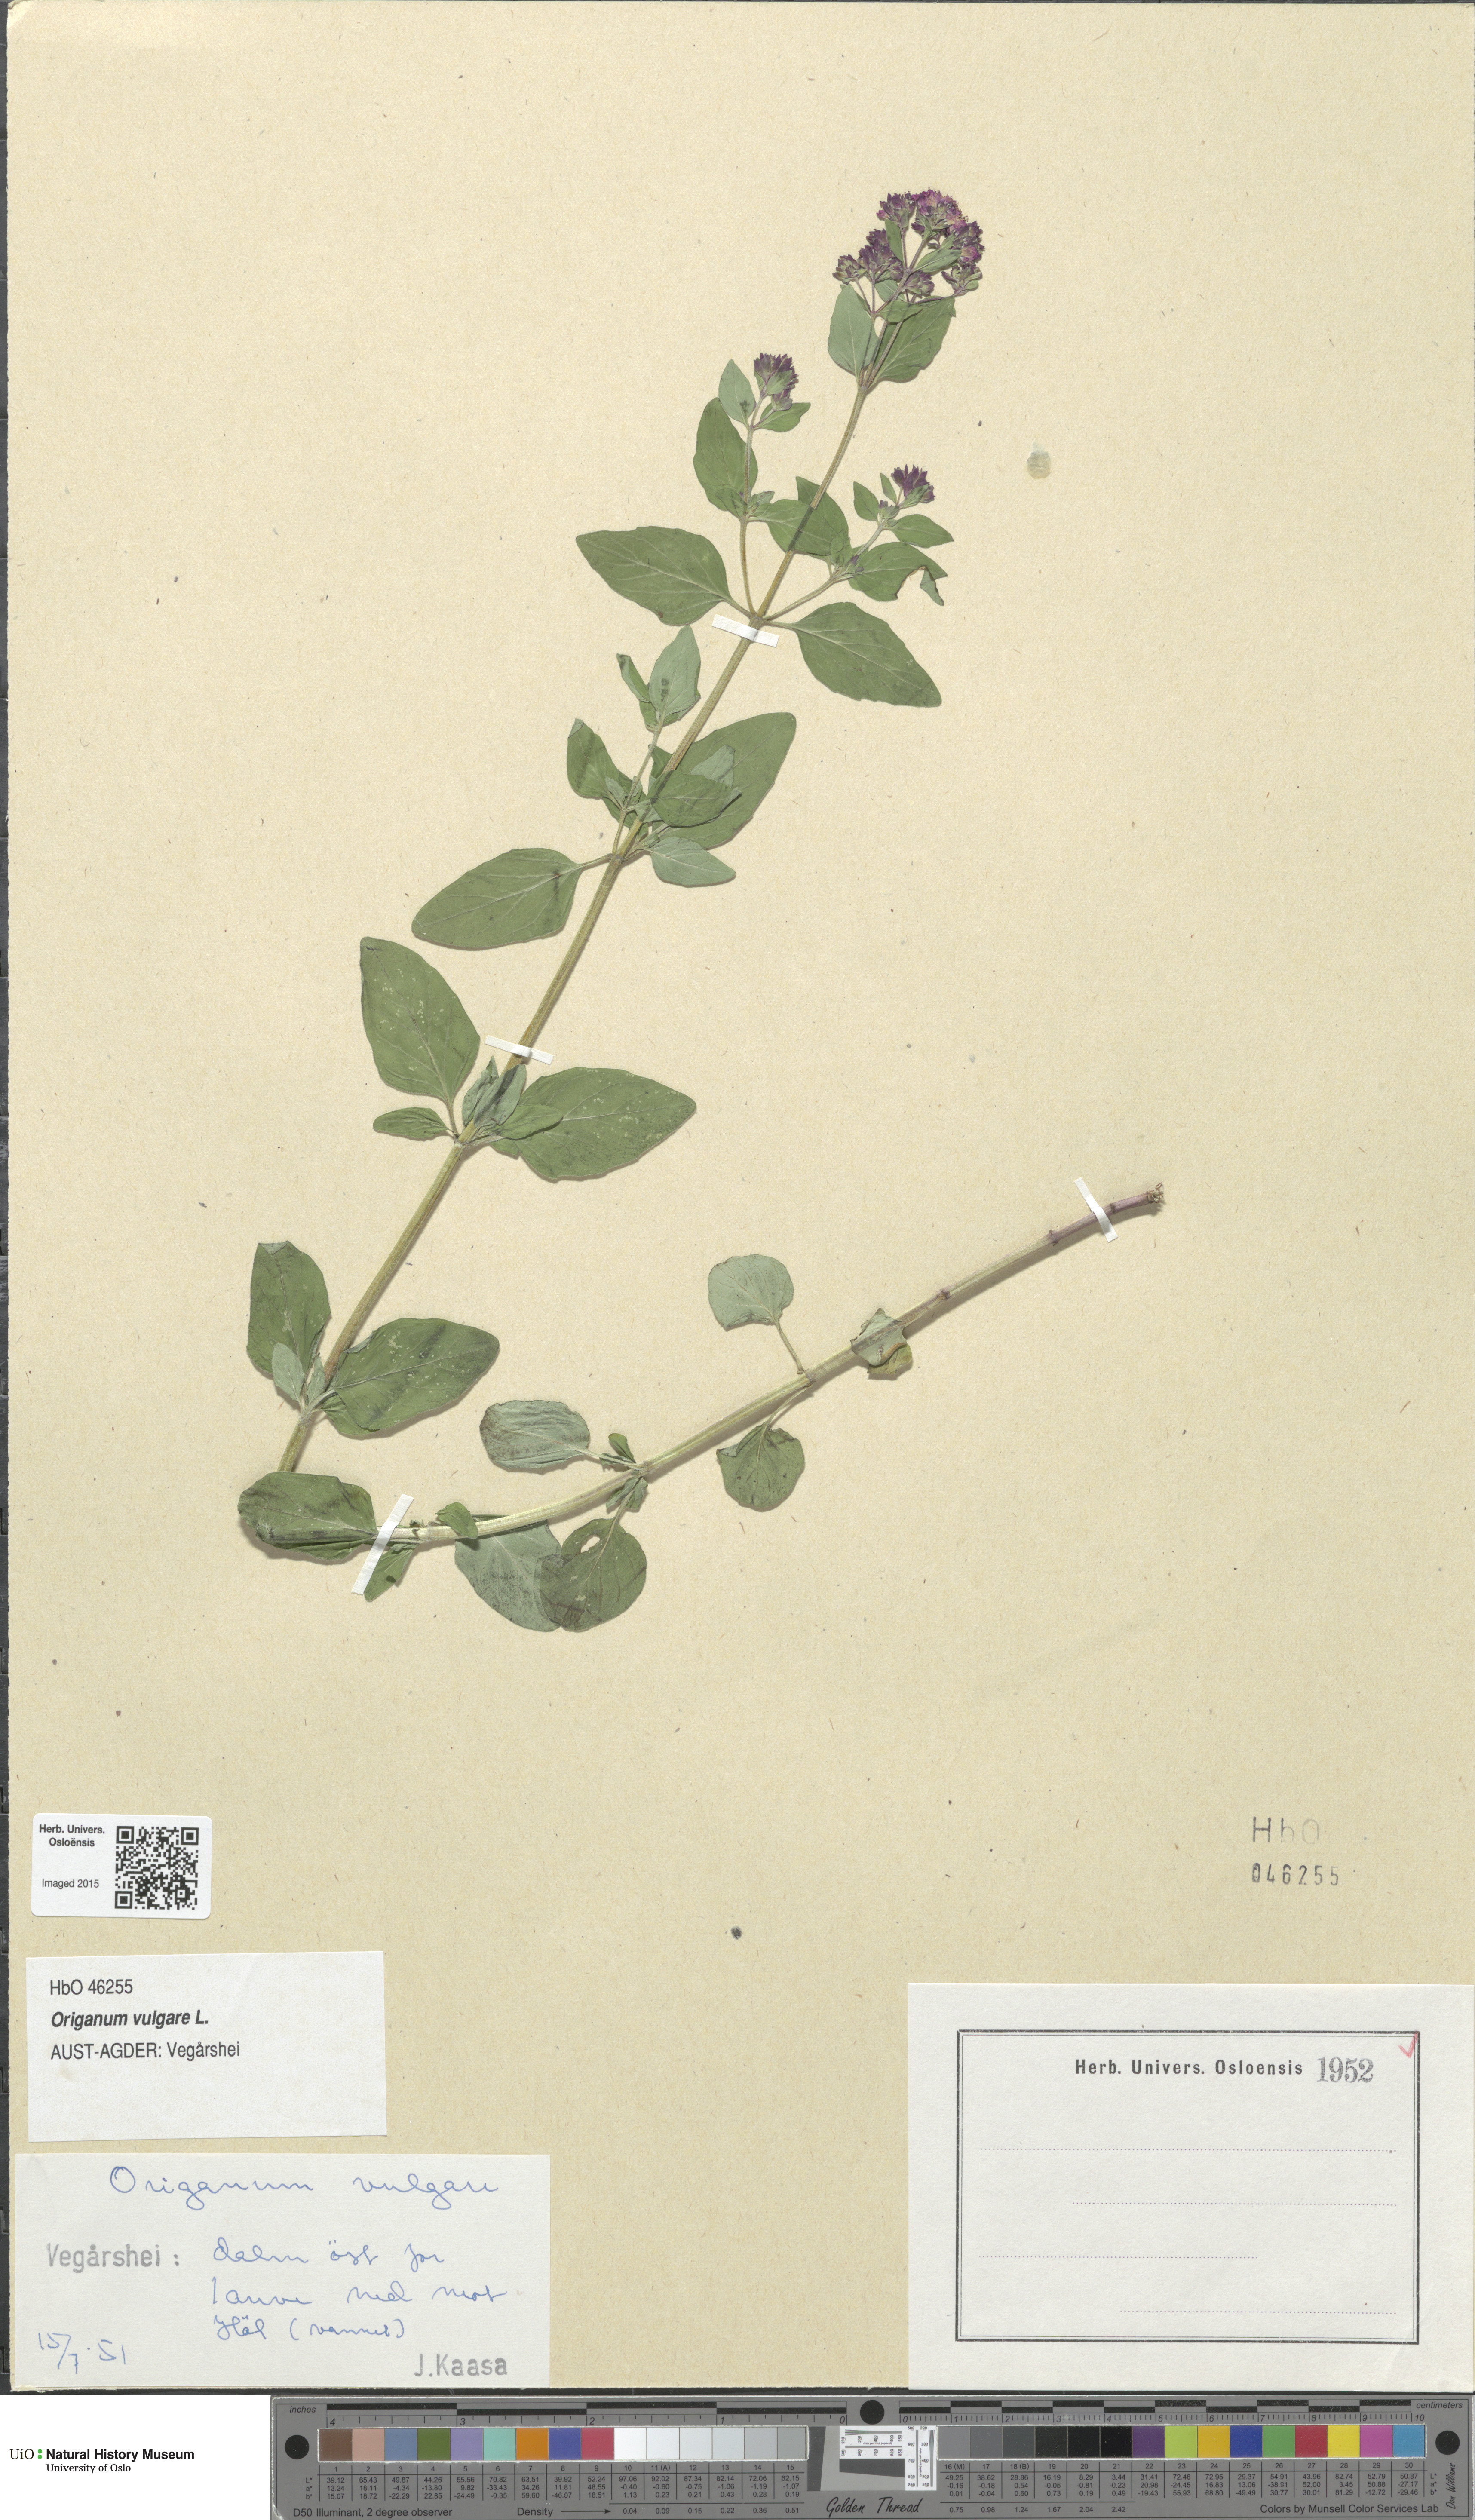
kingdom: Plantae
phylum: Tracheophyta
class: Magnoliopsida
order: Lamiales
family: Lamiaceae
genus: Origanum
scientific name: Origanum vulgare
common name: Wild marjoram
